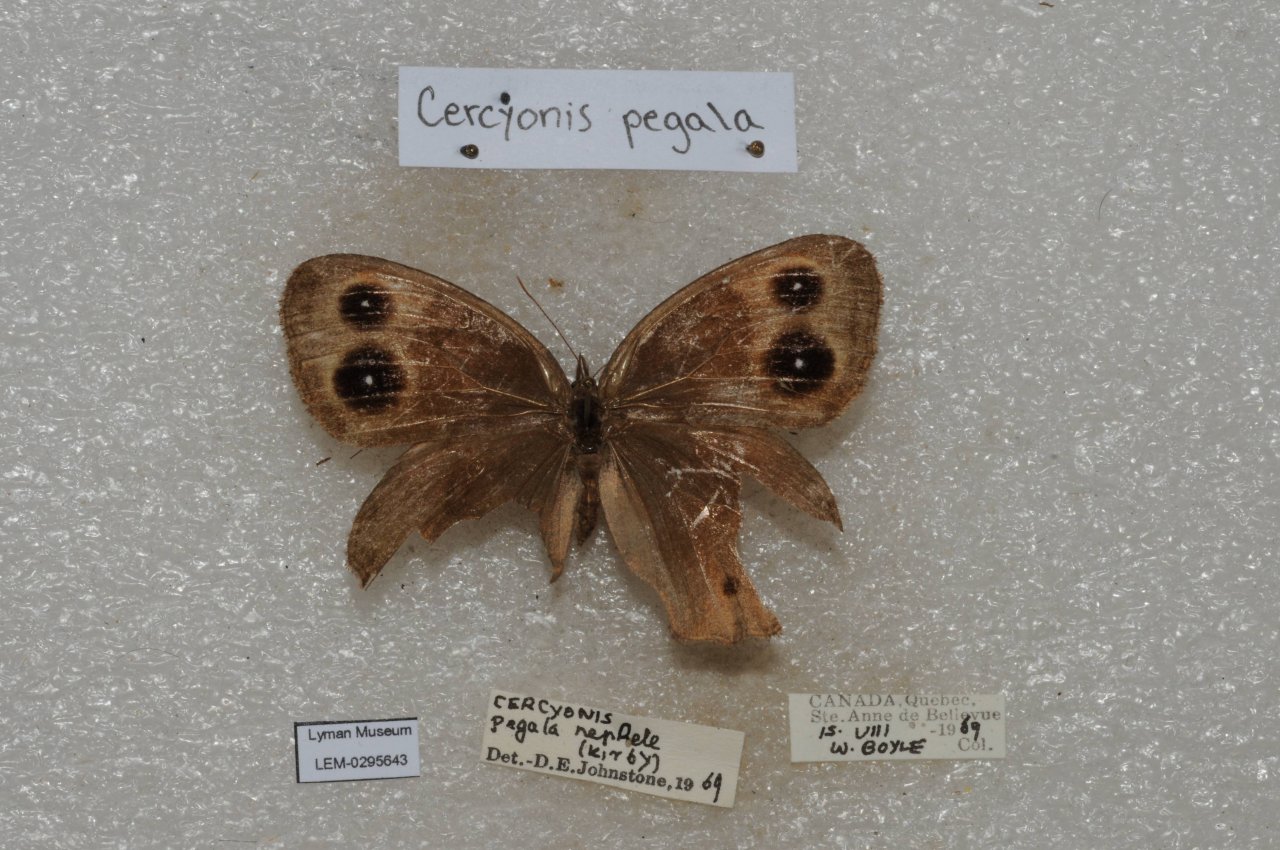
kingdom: Animalia
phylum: Arthropoda
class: Insecta
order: Lepidoptera
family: Nymphalidae
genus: Cercyonis
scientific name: Cercyonis pegala
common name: Common Wood-Nymph
